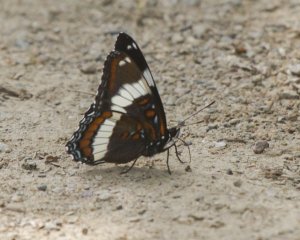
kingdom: Animalia
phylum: Arthropoda
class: Insecta
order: Lepidoptera
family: Nymphalidae
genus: Limenitis
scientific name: Limenitis arthemis
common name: Red-spotted Admiral
